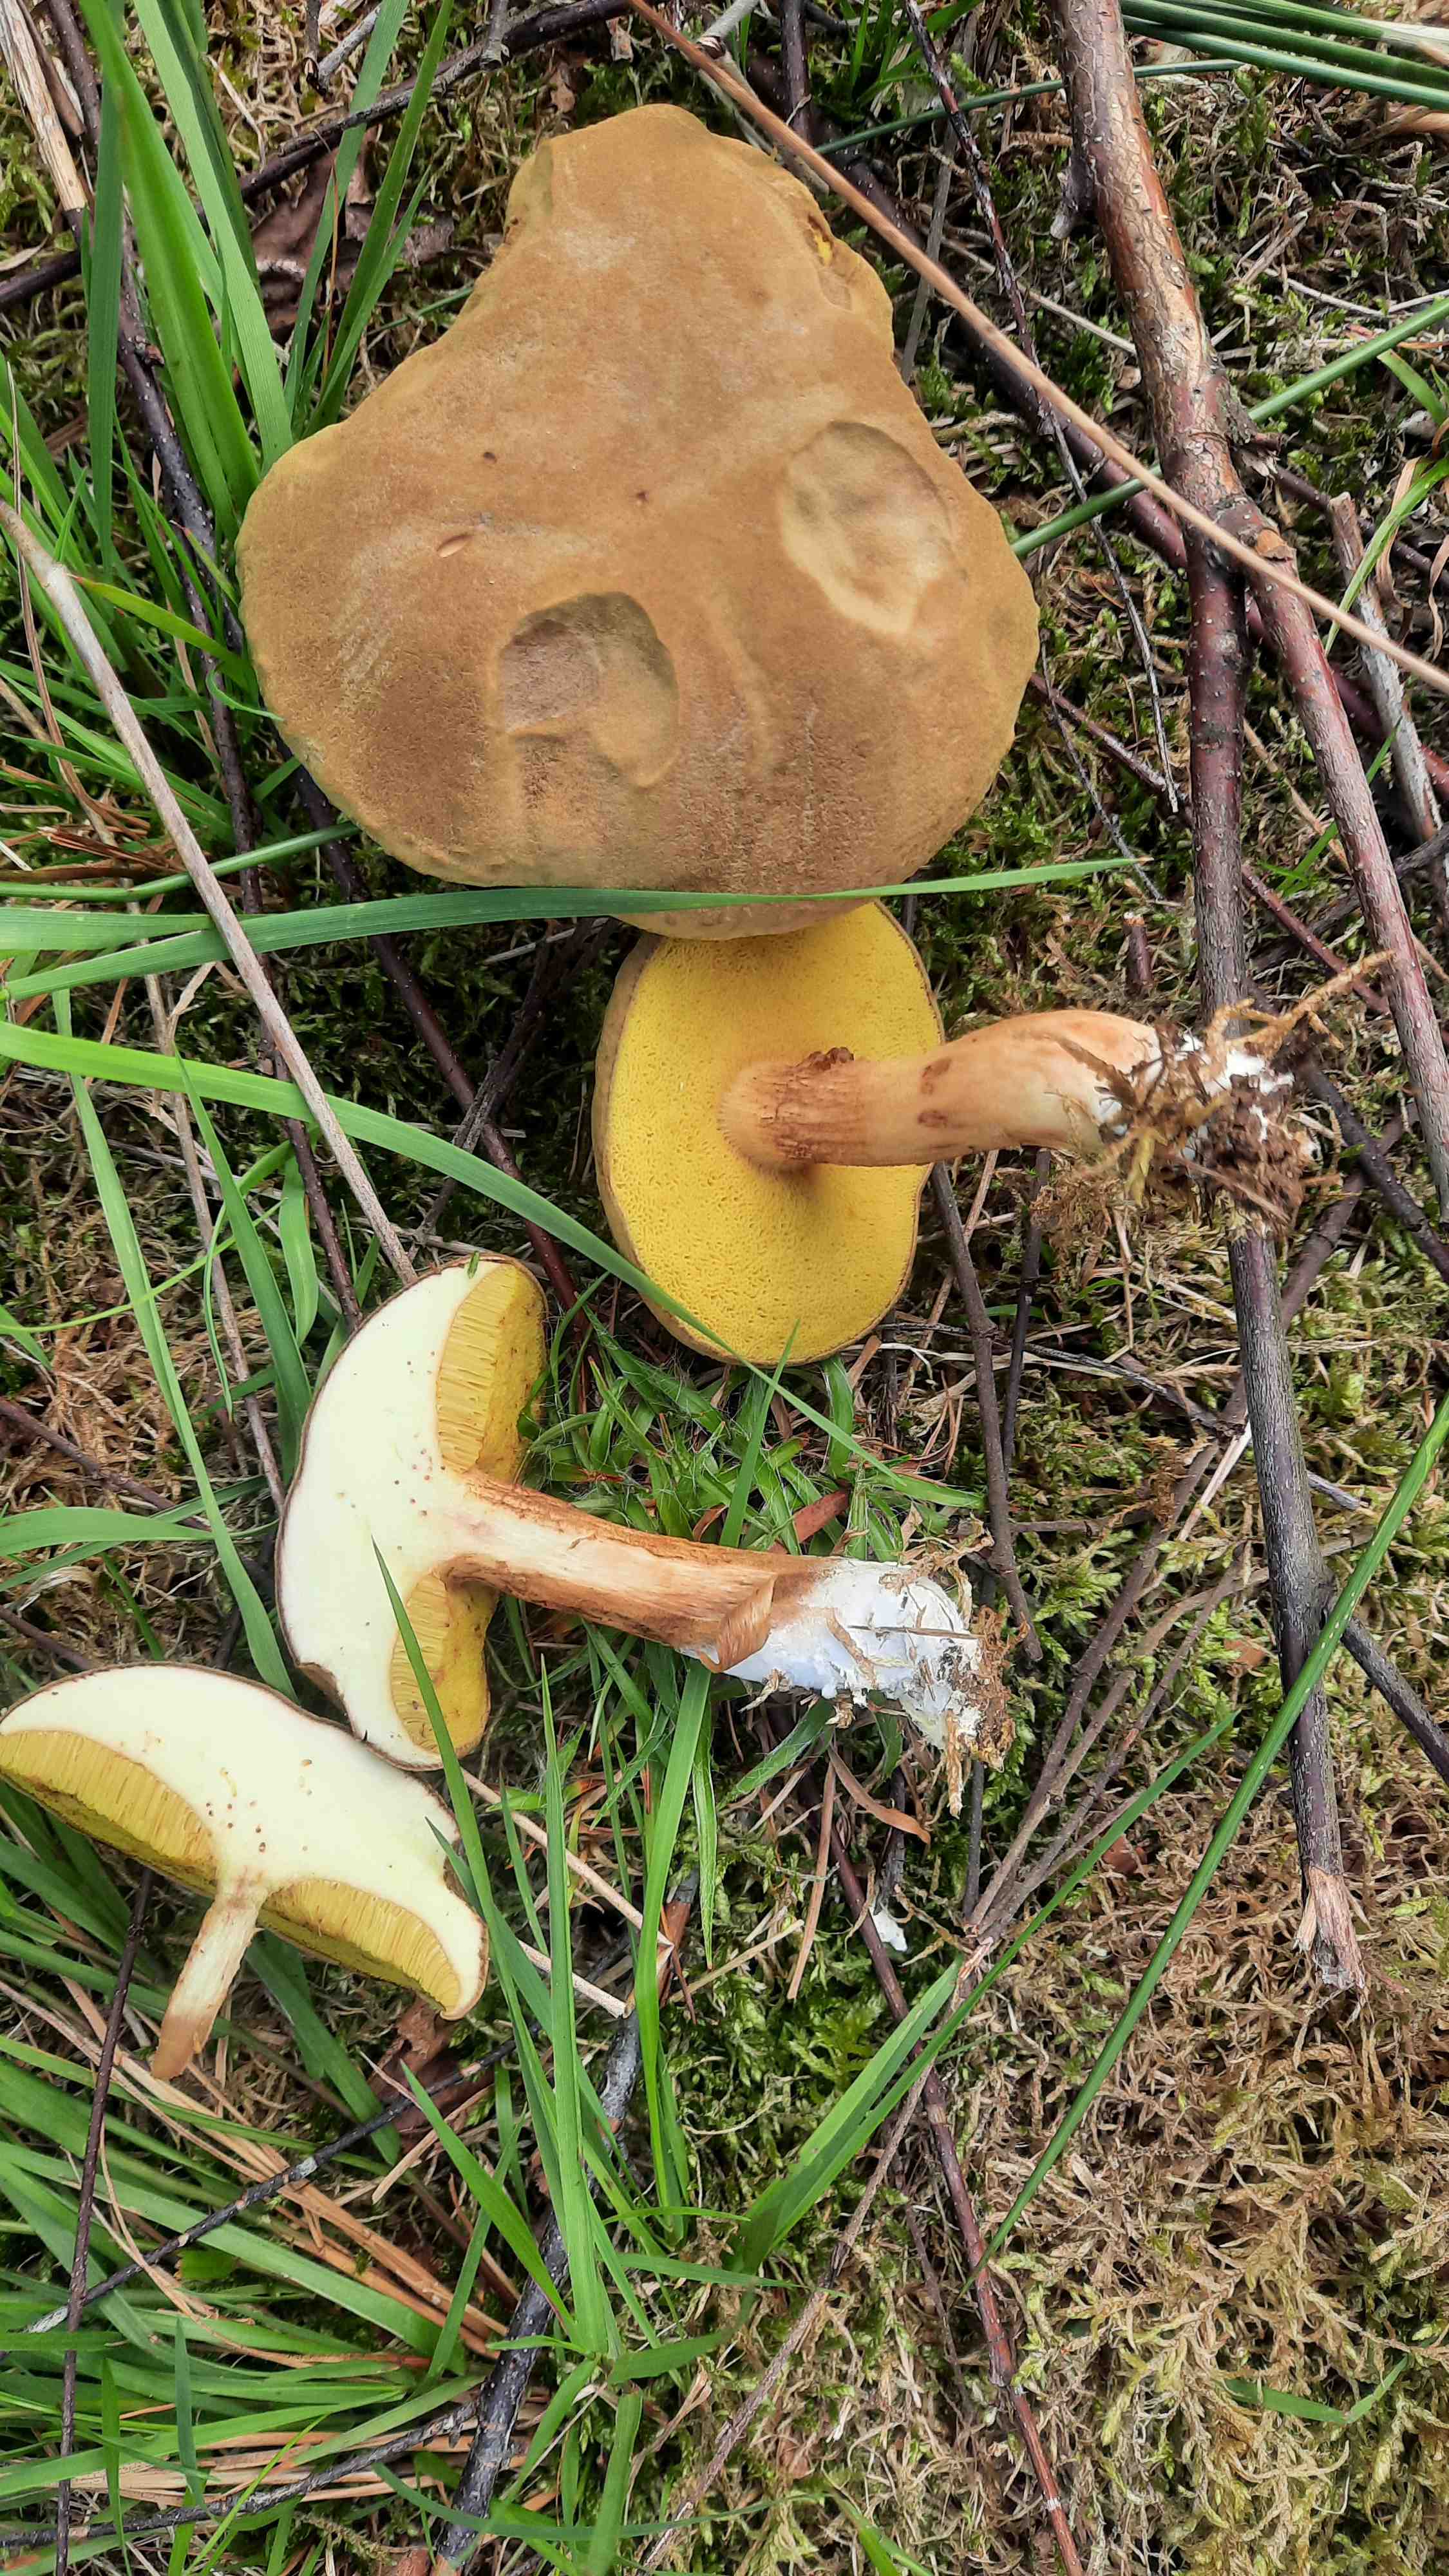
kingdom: Fungi
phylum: Basidiomycota
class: Agaricomycetes
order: Boletales
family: Boletaceae
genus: Xerocomus
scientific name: Xerocomus ferrugineus
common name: vaskeskinds-rørhat
